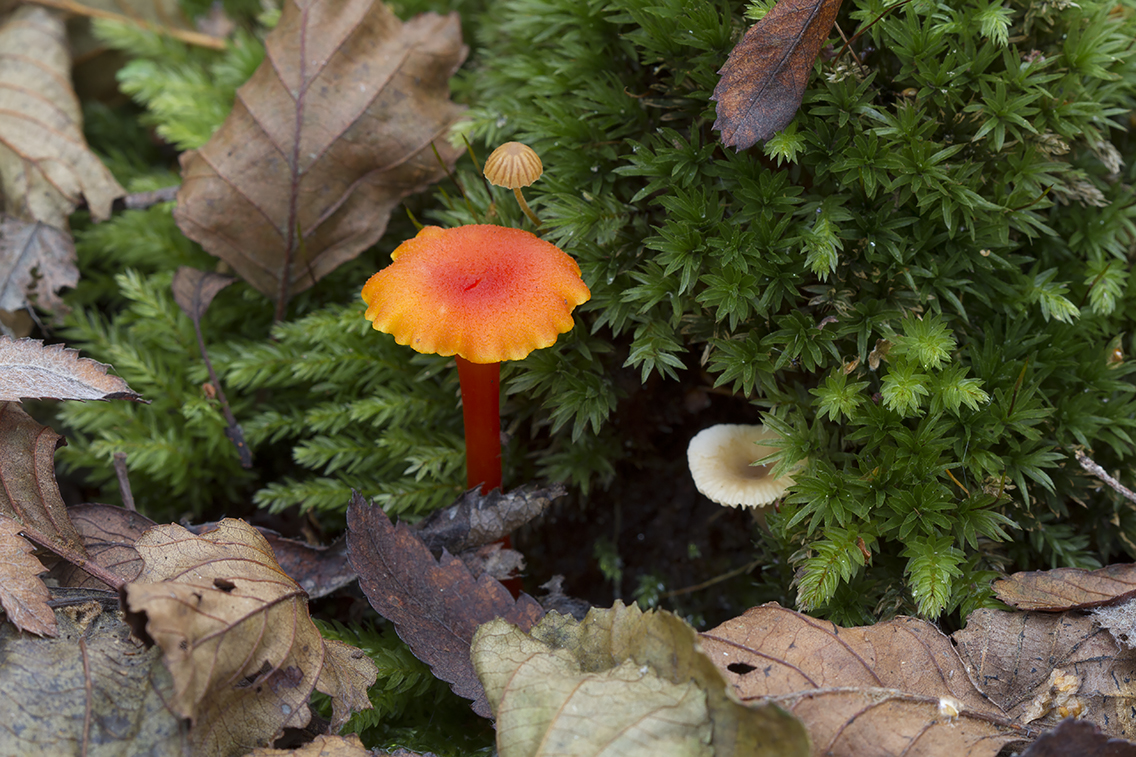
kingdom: Fungi
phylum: Basidiomycota
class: Agaricomycetes
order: Agaricales
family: Hygrophoraceae
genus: Hygrocybe
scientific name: Hygrocybe cantharellus
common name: kantarel-vokshat
